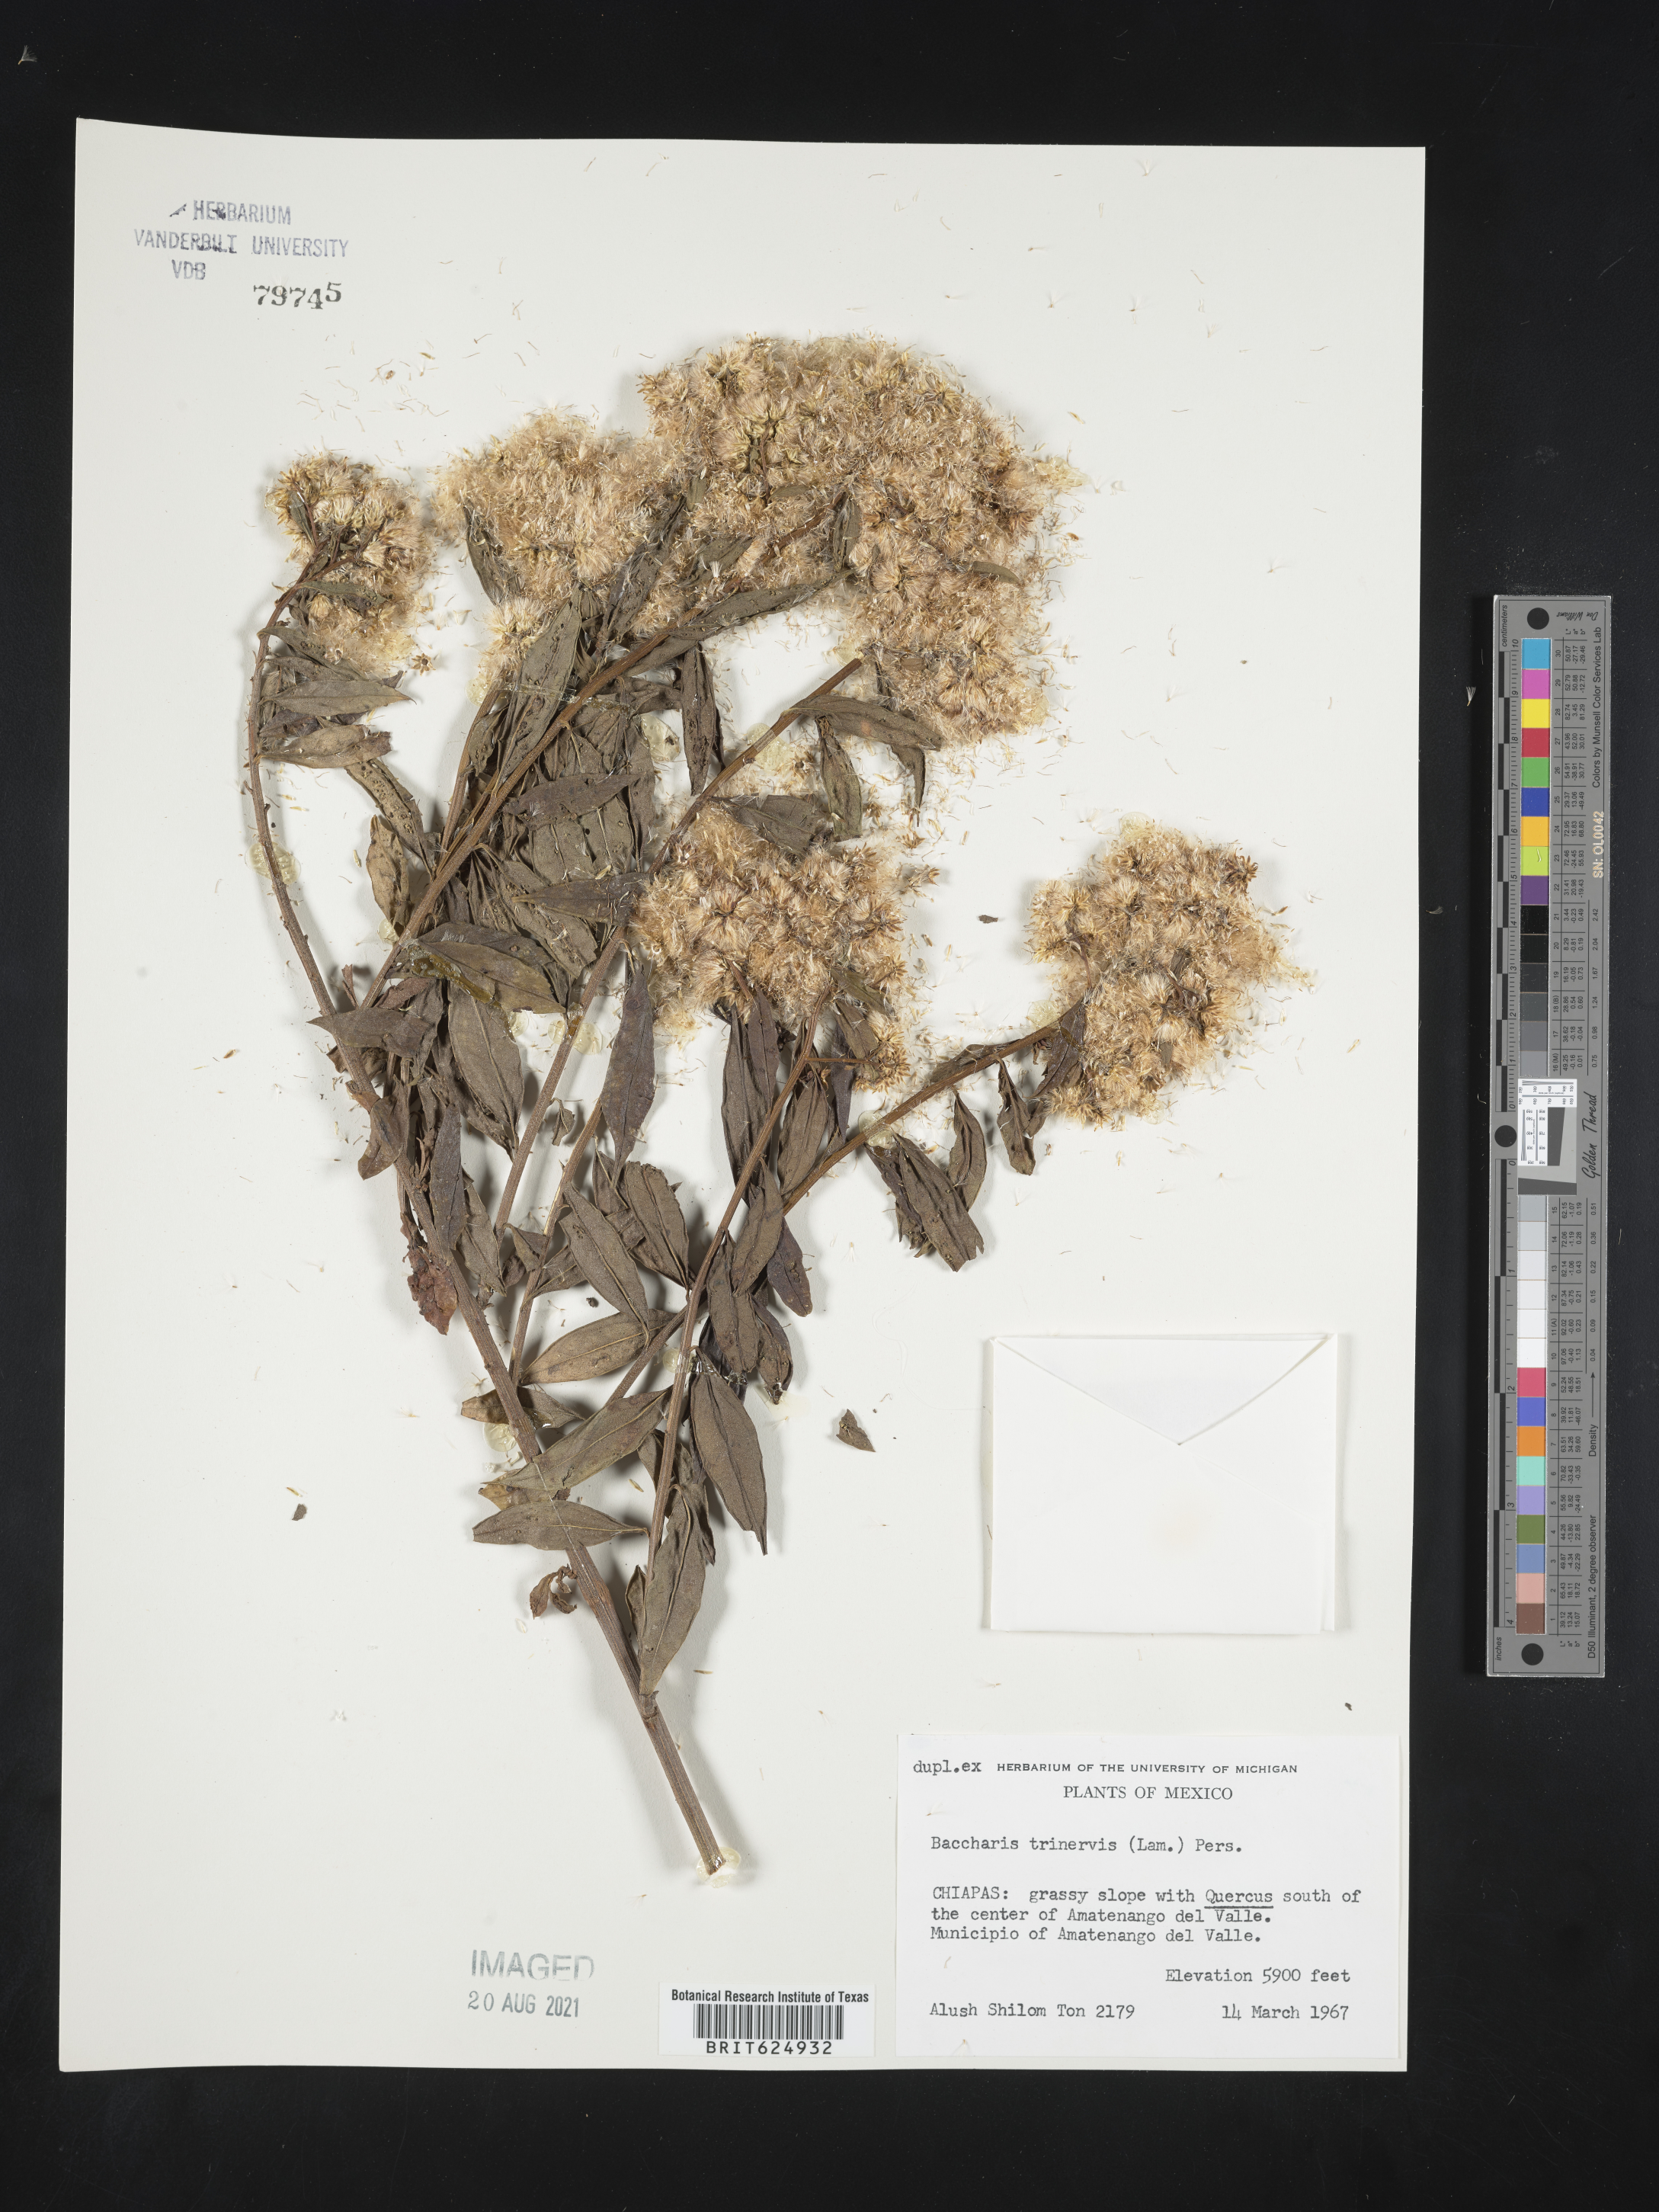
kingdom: Plantae
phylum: Tracheophyta
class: Magnoliopsida
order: Asterales
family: Asteraceae
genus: Baccharis
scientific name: Baccharis
